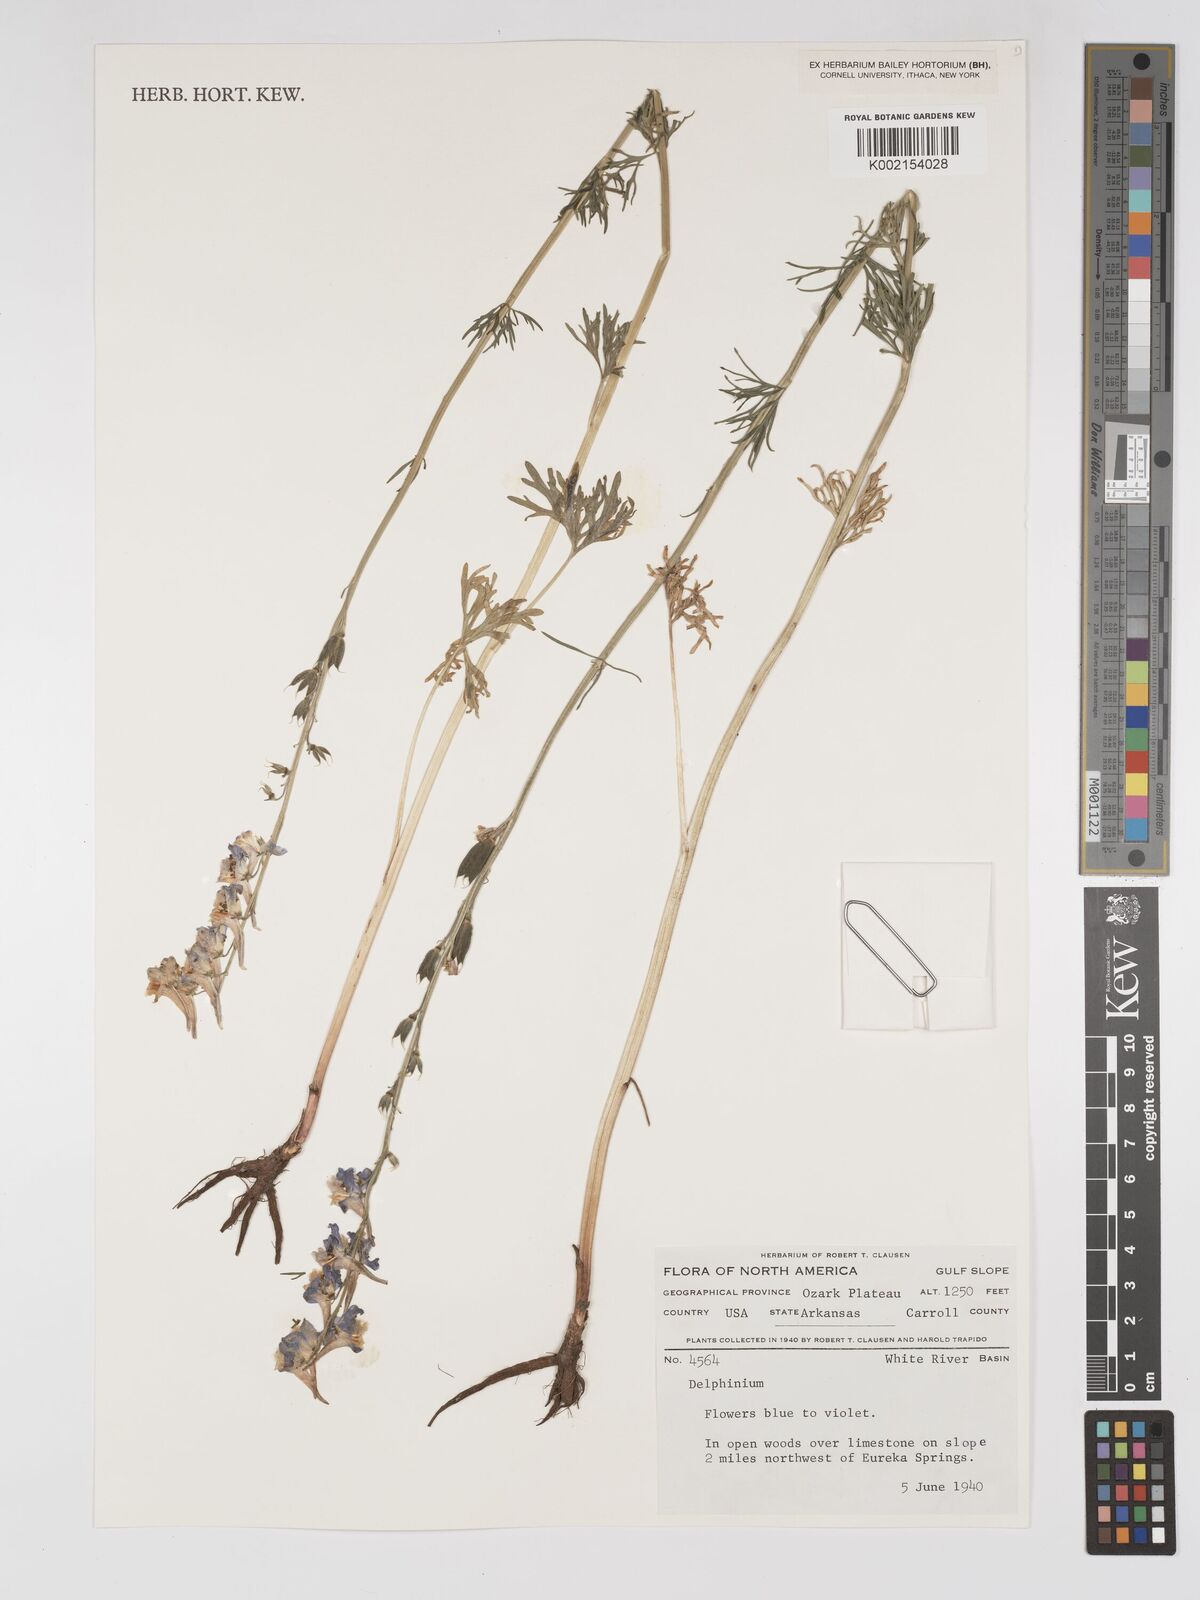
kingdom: Plantae
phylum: Tracheophyta
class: Magnoliopsida
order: Ranunculales
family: Ranunculaceae
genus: Delphinium
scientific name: Delphinium
